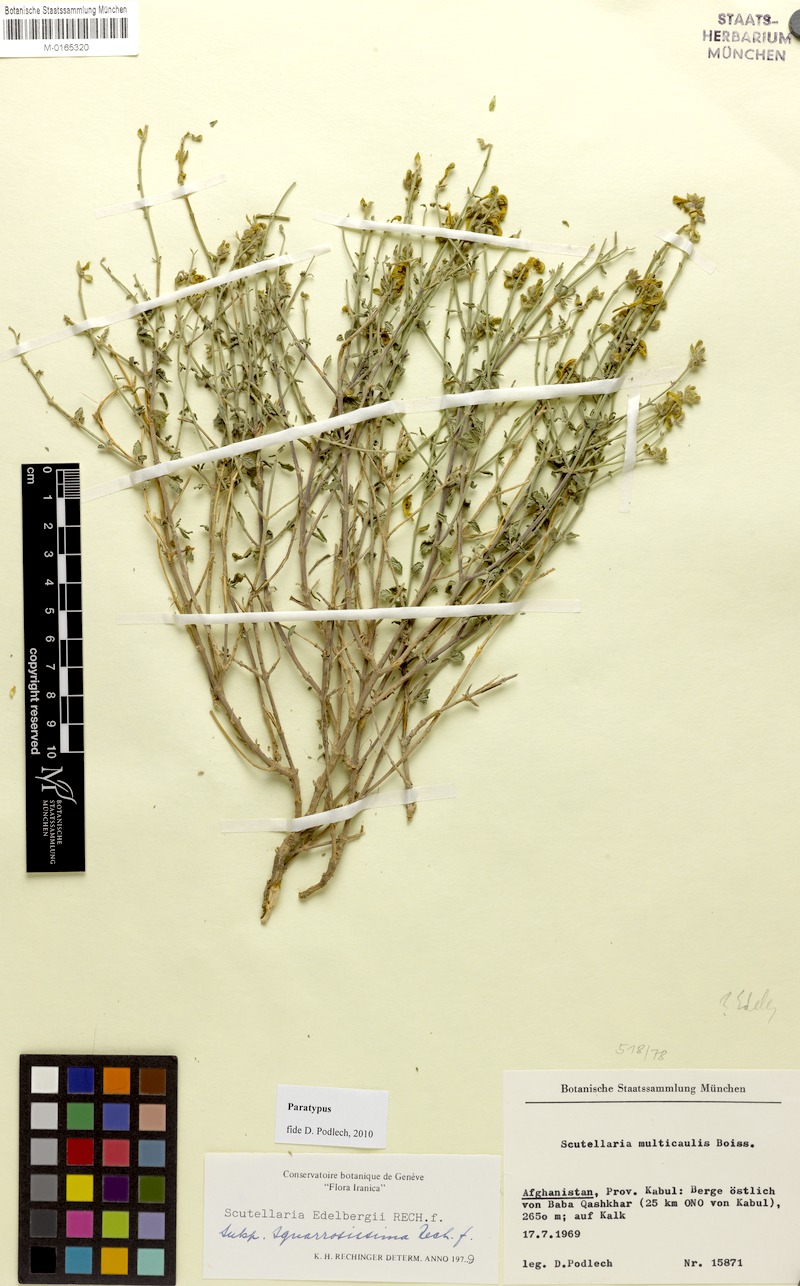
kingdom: Plantae
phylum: Tracheophyta
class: Magnoliopsida
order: Lamiales
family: Lamiaceae
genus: Scutellaria
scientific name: Scutellaria edelbergii
